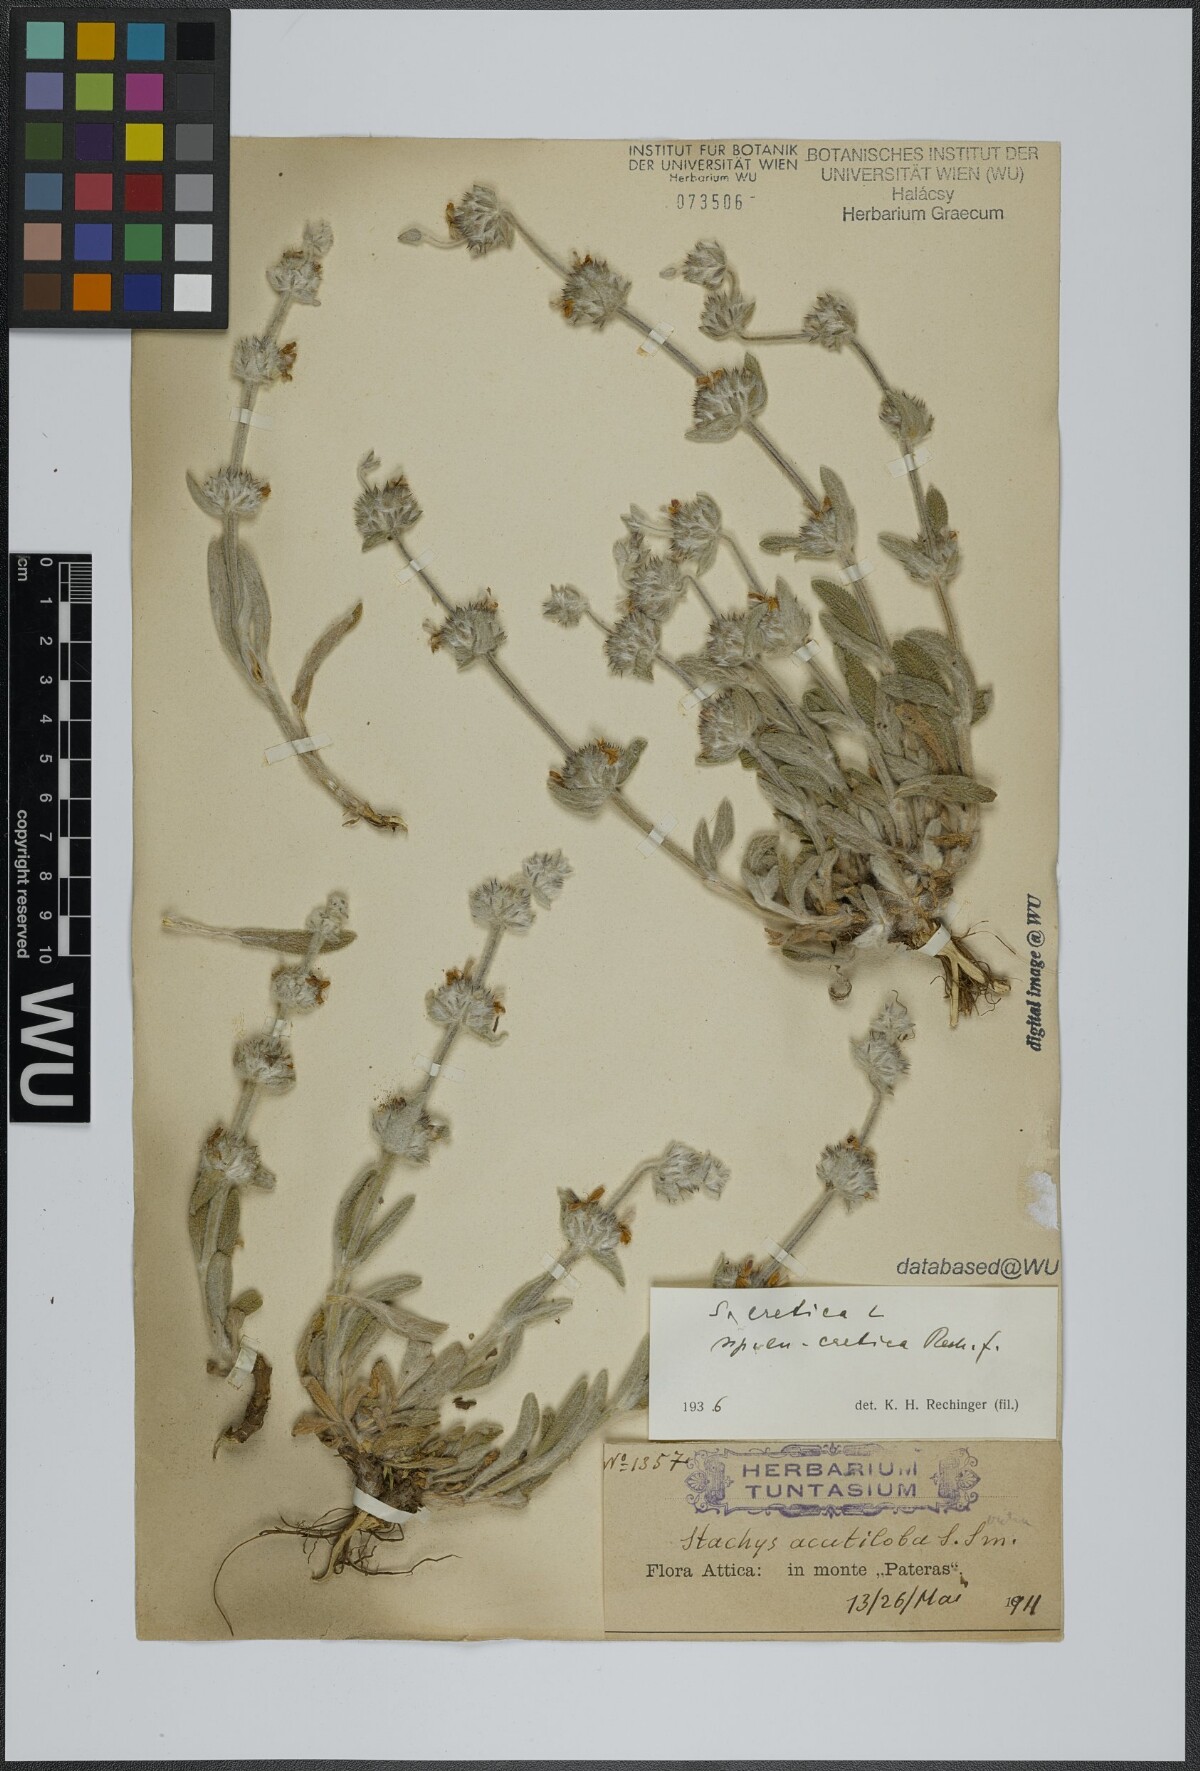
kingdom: Plantae
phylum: Tracheophyta
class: Magnoliopsida
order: Lamiales
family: Lamiaceae
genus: Stachys
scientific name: Stachys cretica
